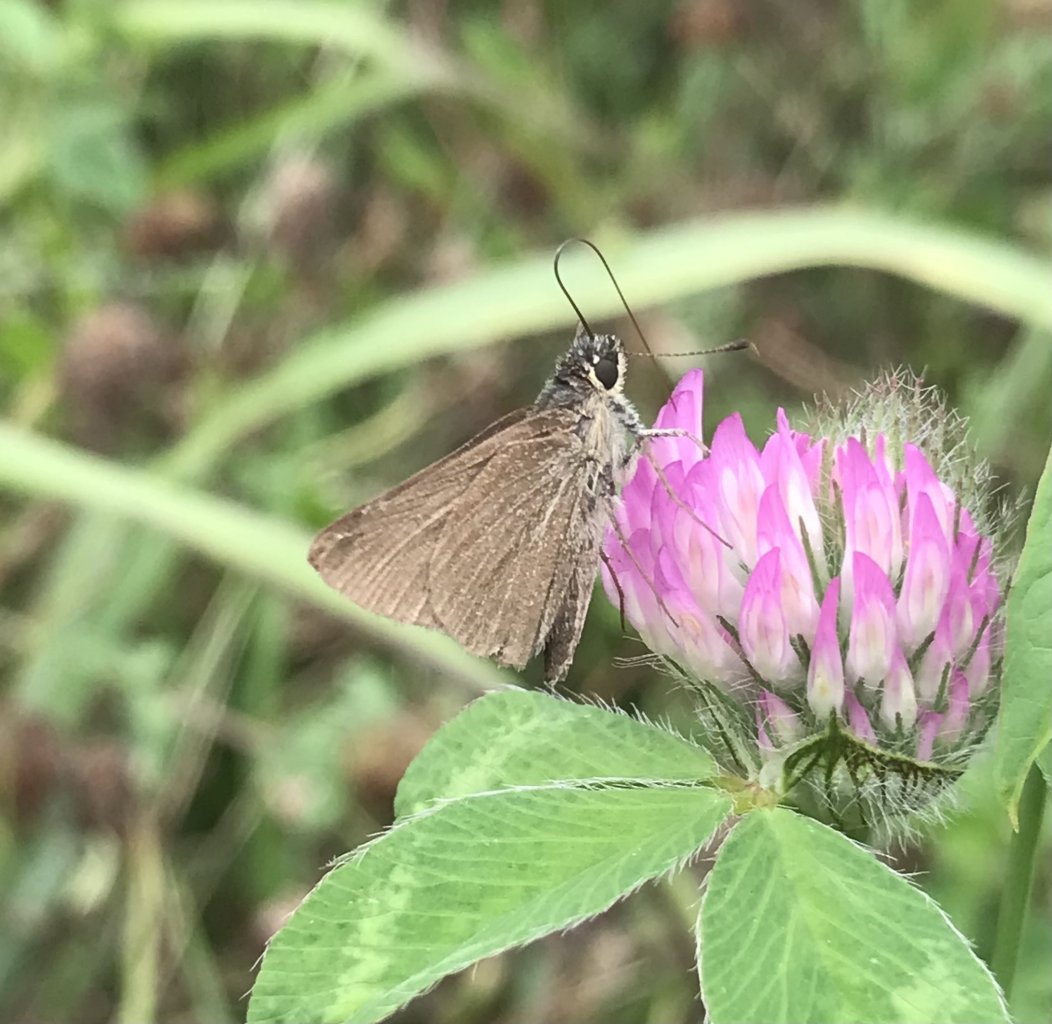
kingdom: Animalia
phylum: Arthropoda
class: Insecta
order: Lepidoptera
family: Hesperiidae
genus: Lerodea
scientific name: Lerodea eufala
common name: Eufala Skipper
